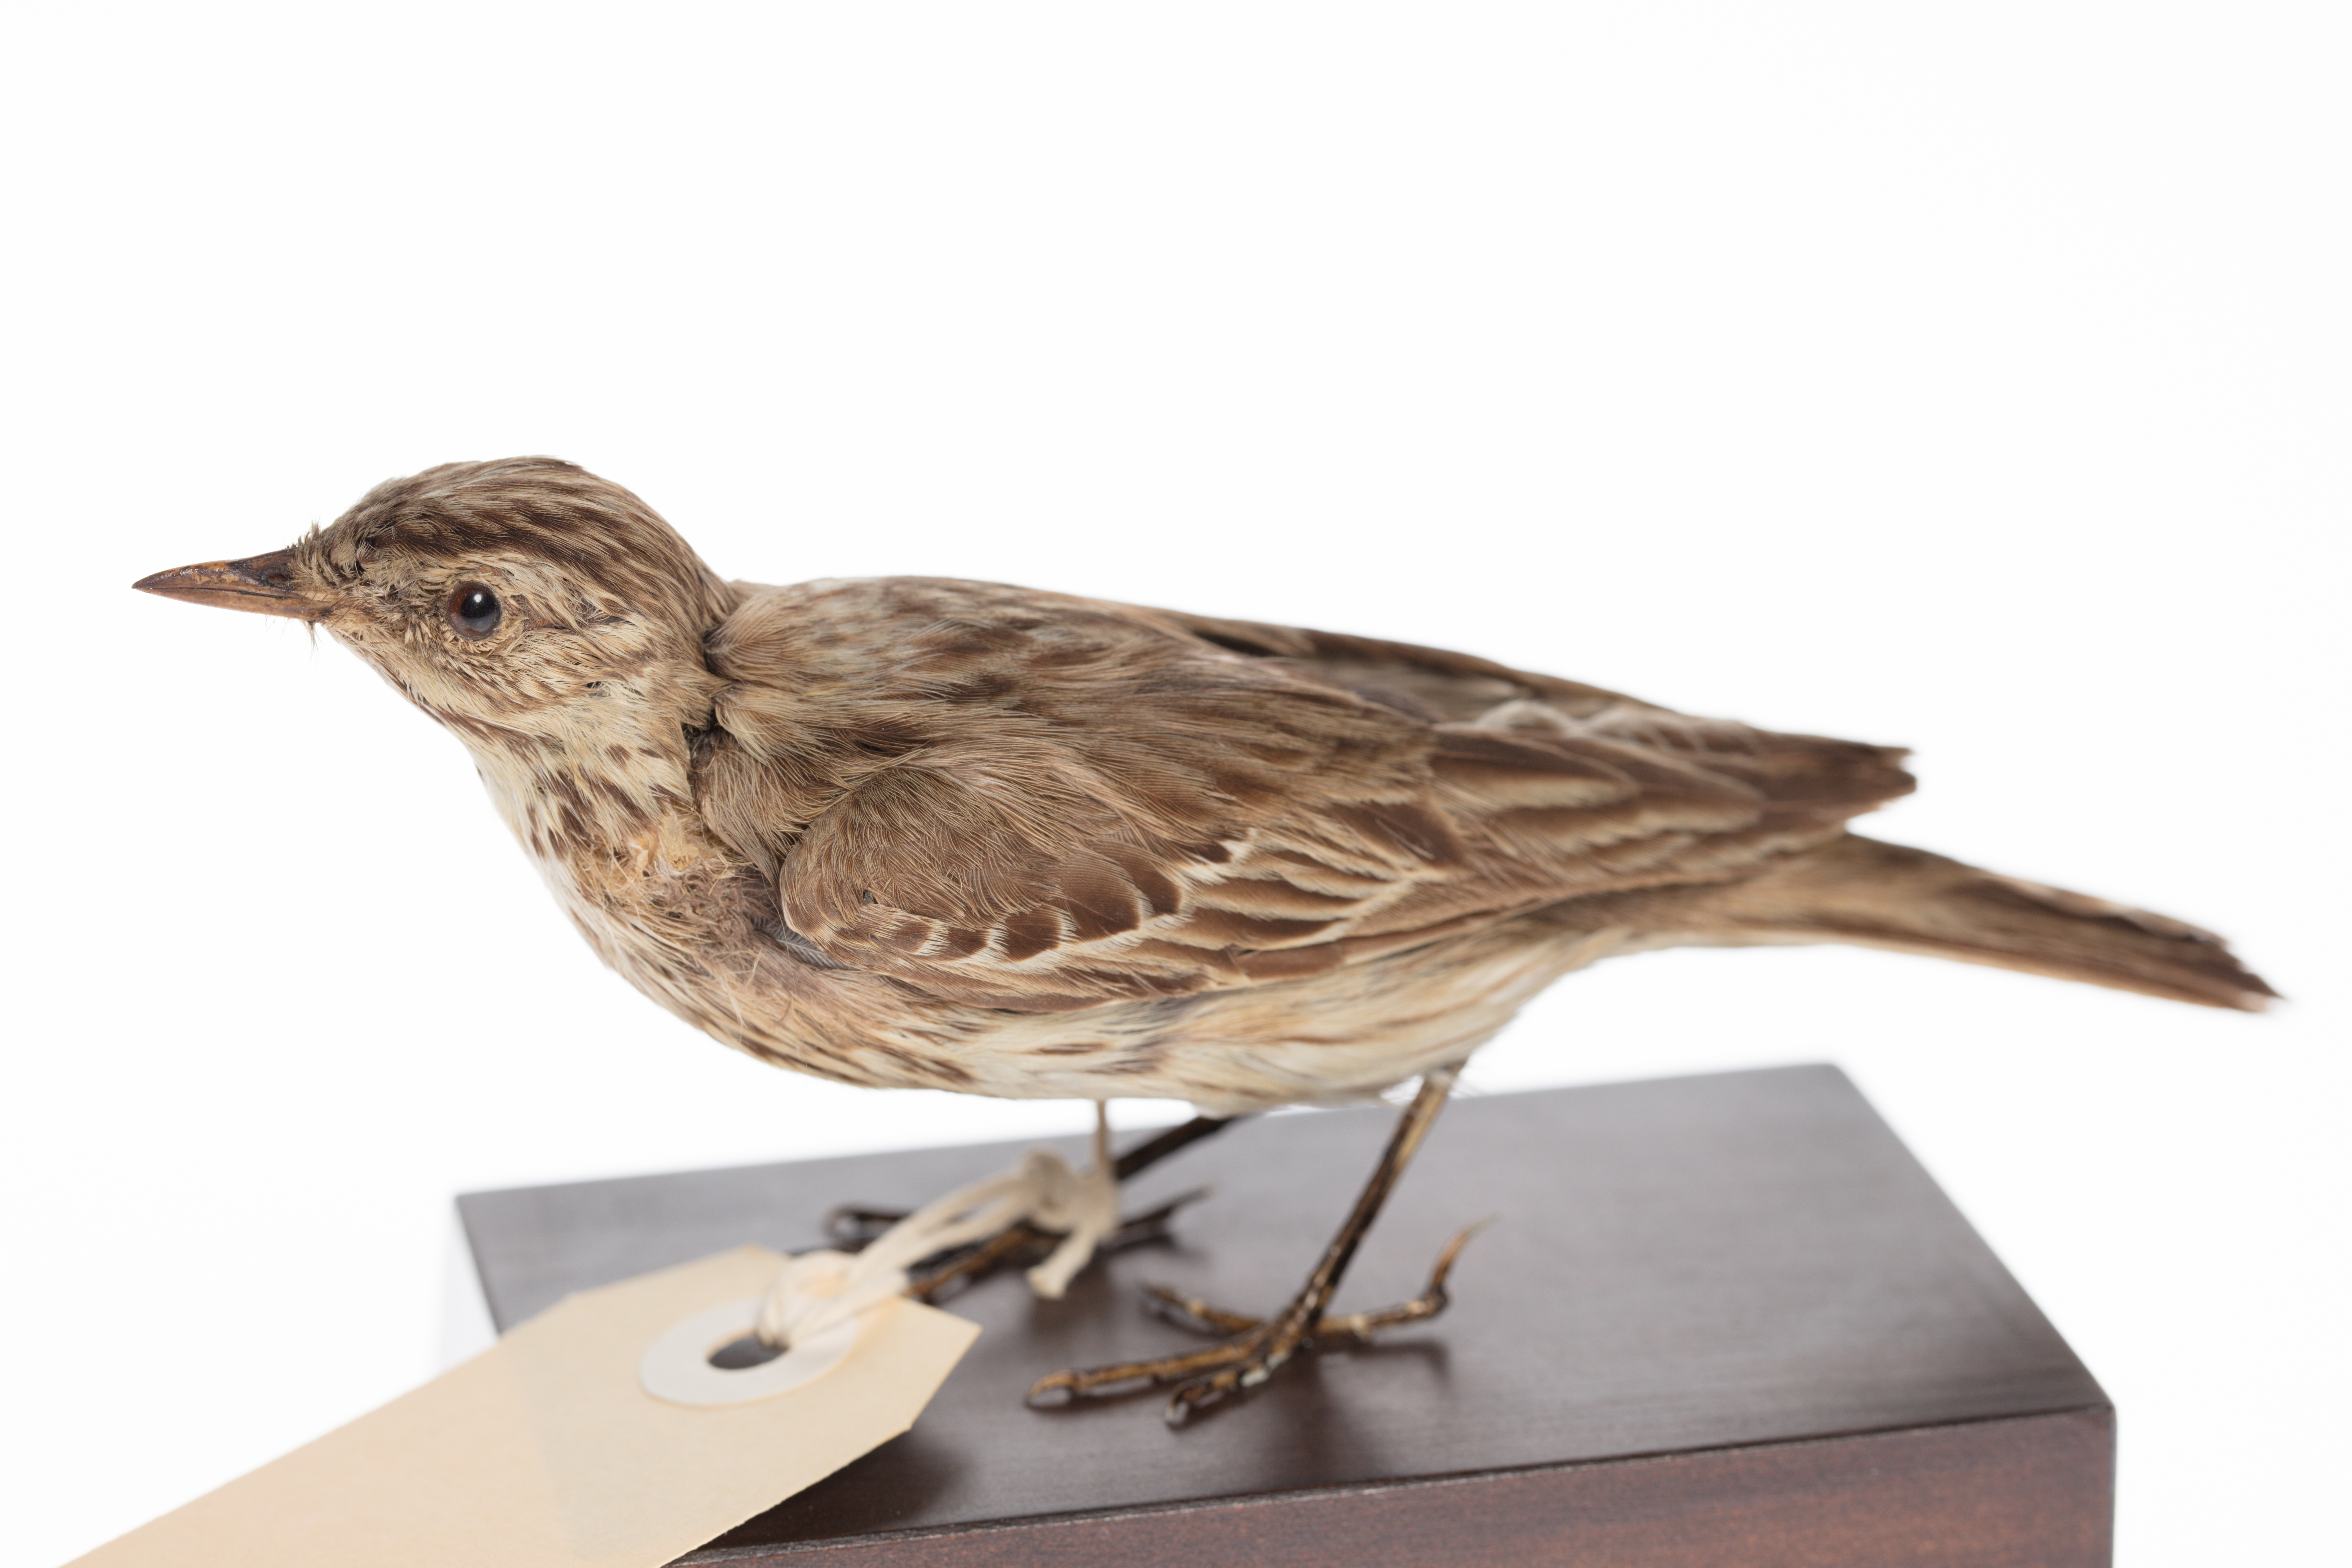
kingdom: Animalia
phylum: Chordata
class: Aves
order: Passeriformes
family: Motacillidae
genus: Anthus
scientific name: Anthus trivialis
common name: Tree pipit
